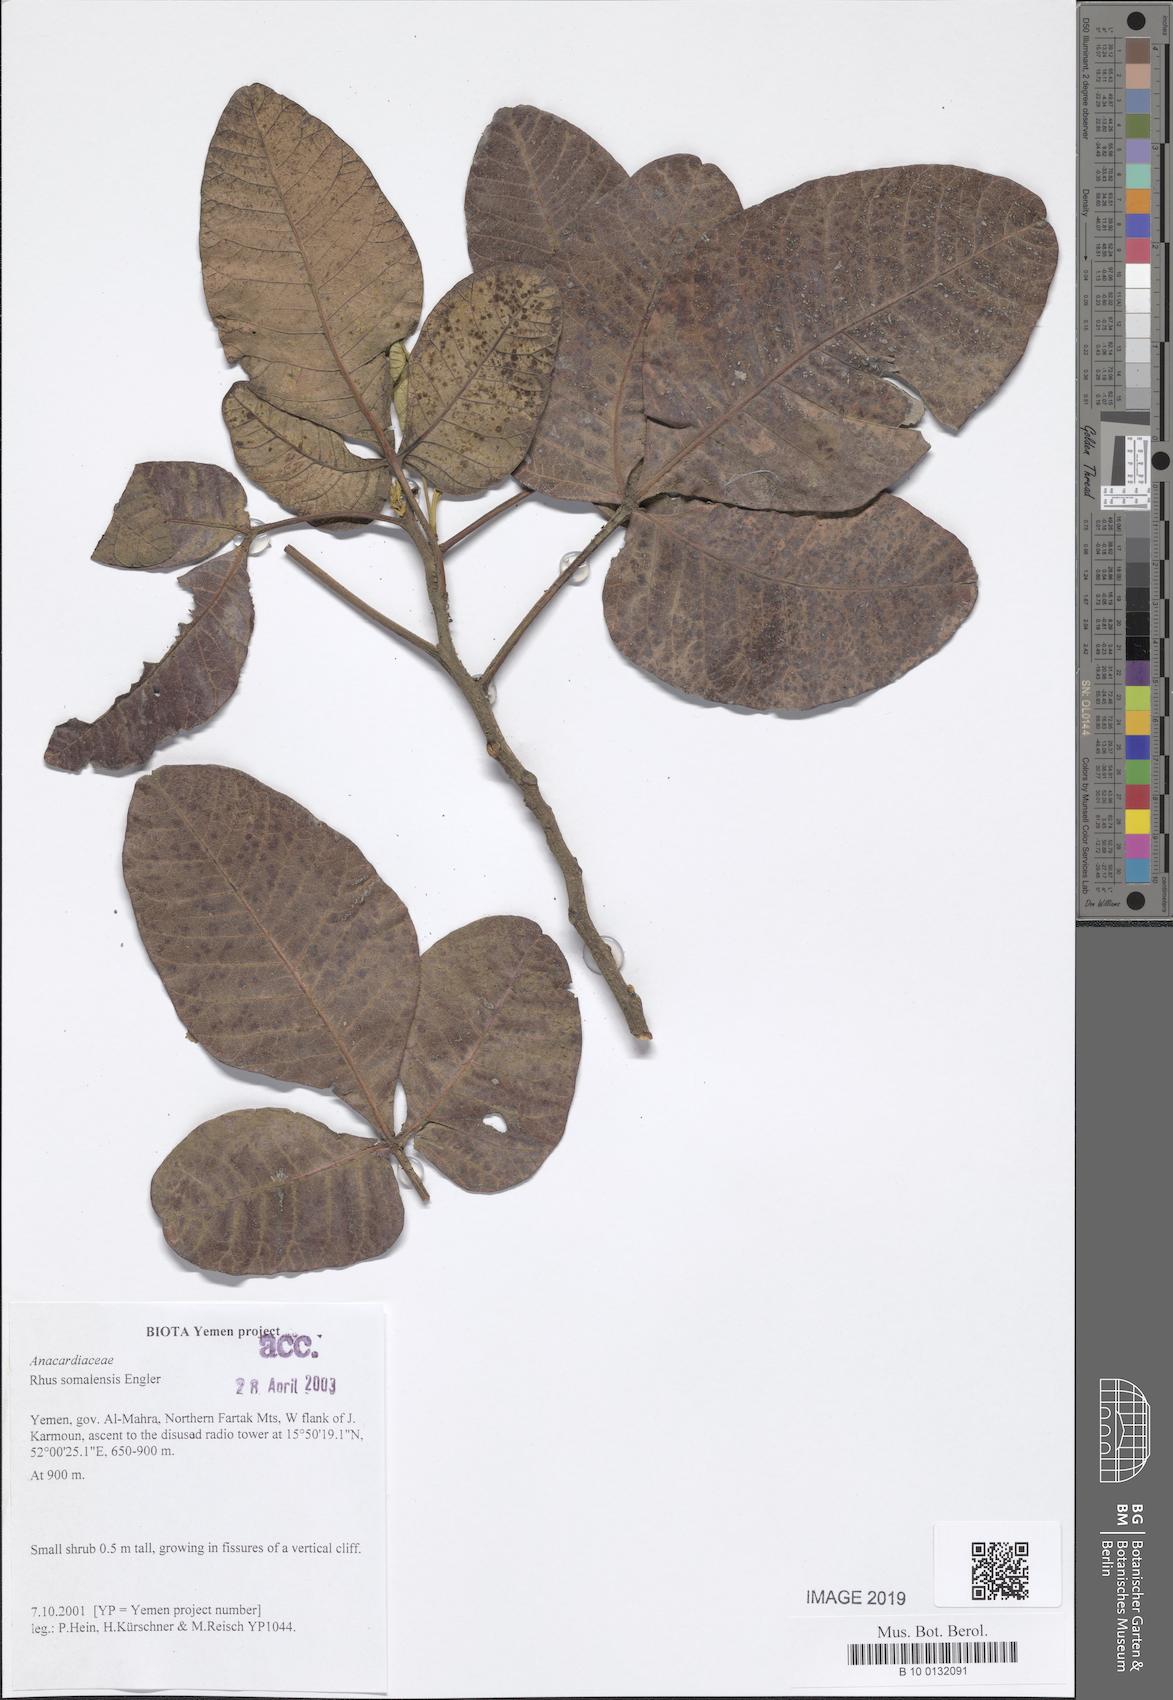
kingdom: Plantae
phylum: Tracheophyta
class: Magnoliopsida
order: Sapindales
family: Anacardiaceae
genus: Searsia
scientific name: Searsia somalensis
